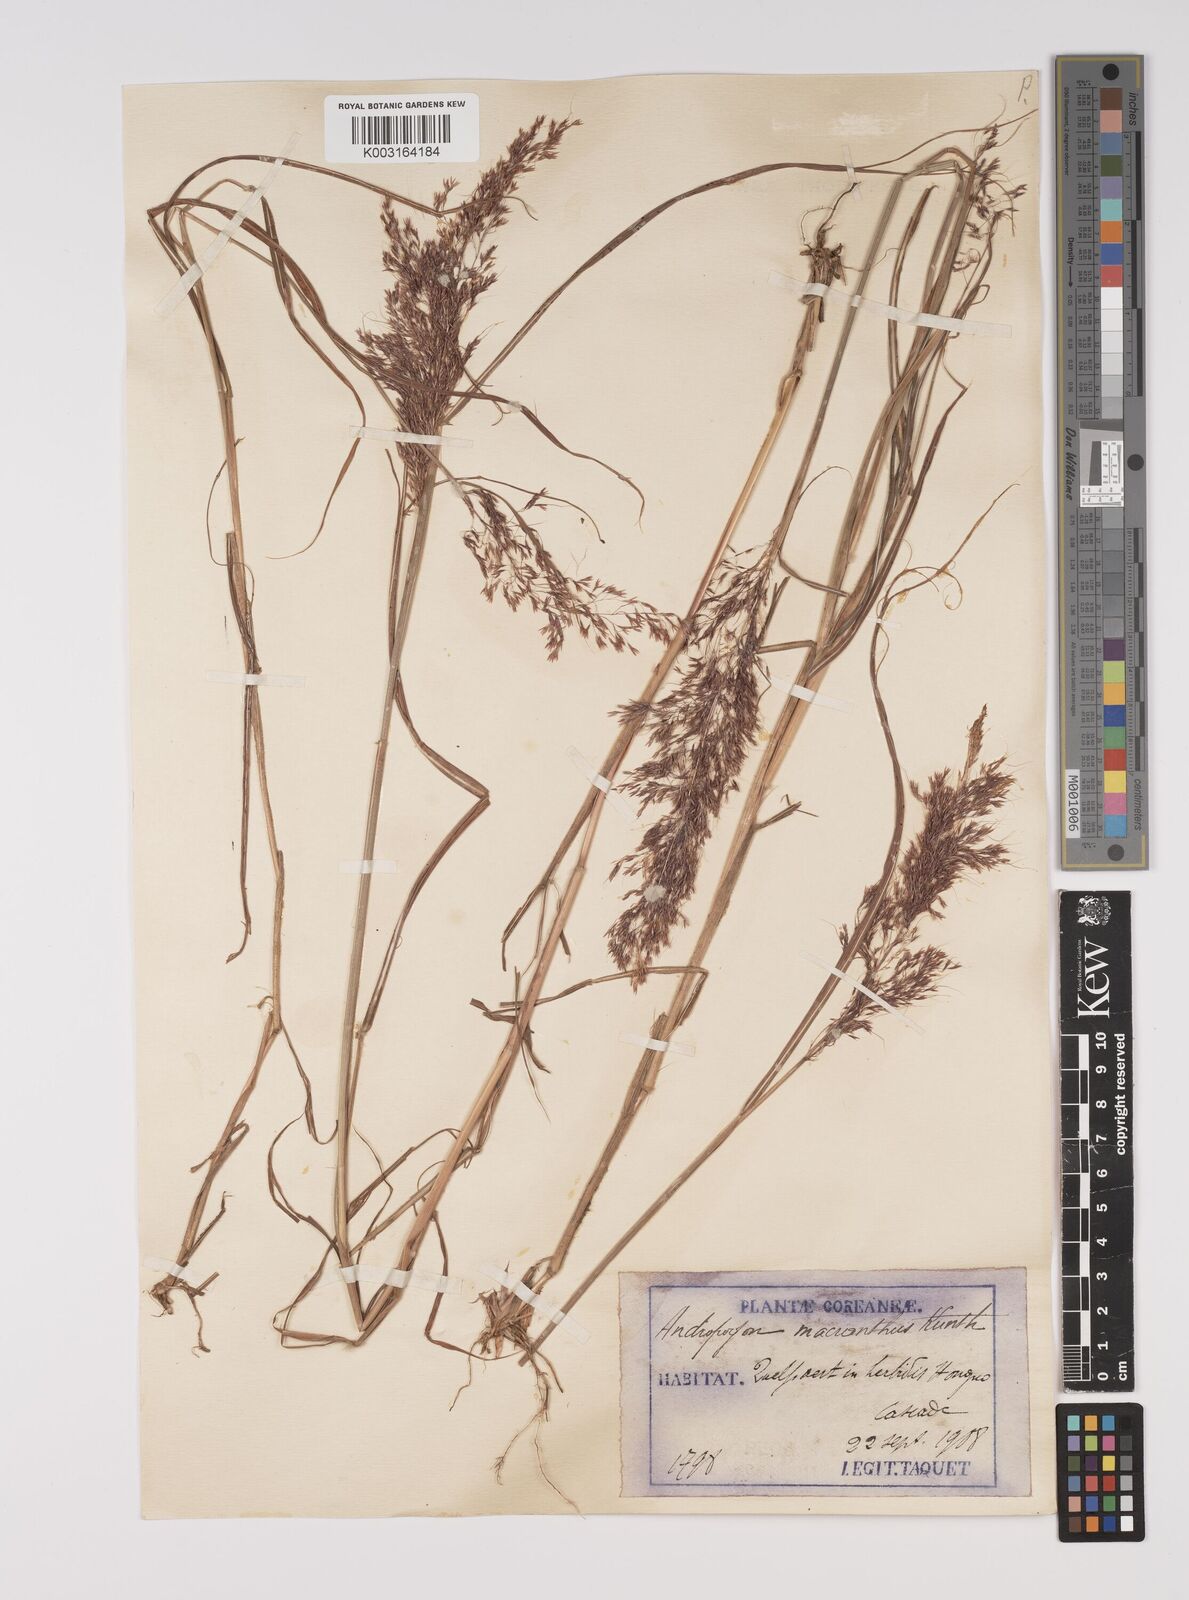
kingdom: Plantae
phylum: Tracheophyta
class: Liliopsida
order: Poales
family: Poaceae
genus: Capillipedium
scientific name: Capillipedium parviflorum
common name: Golden-beard
